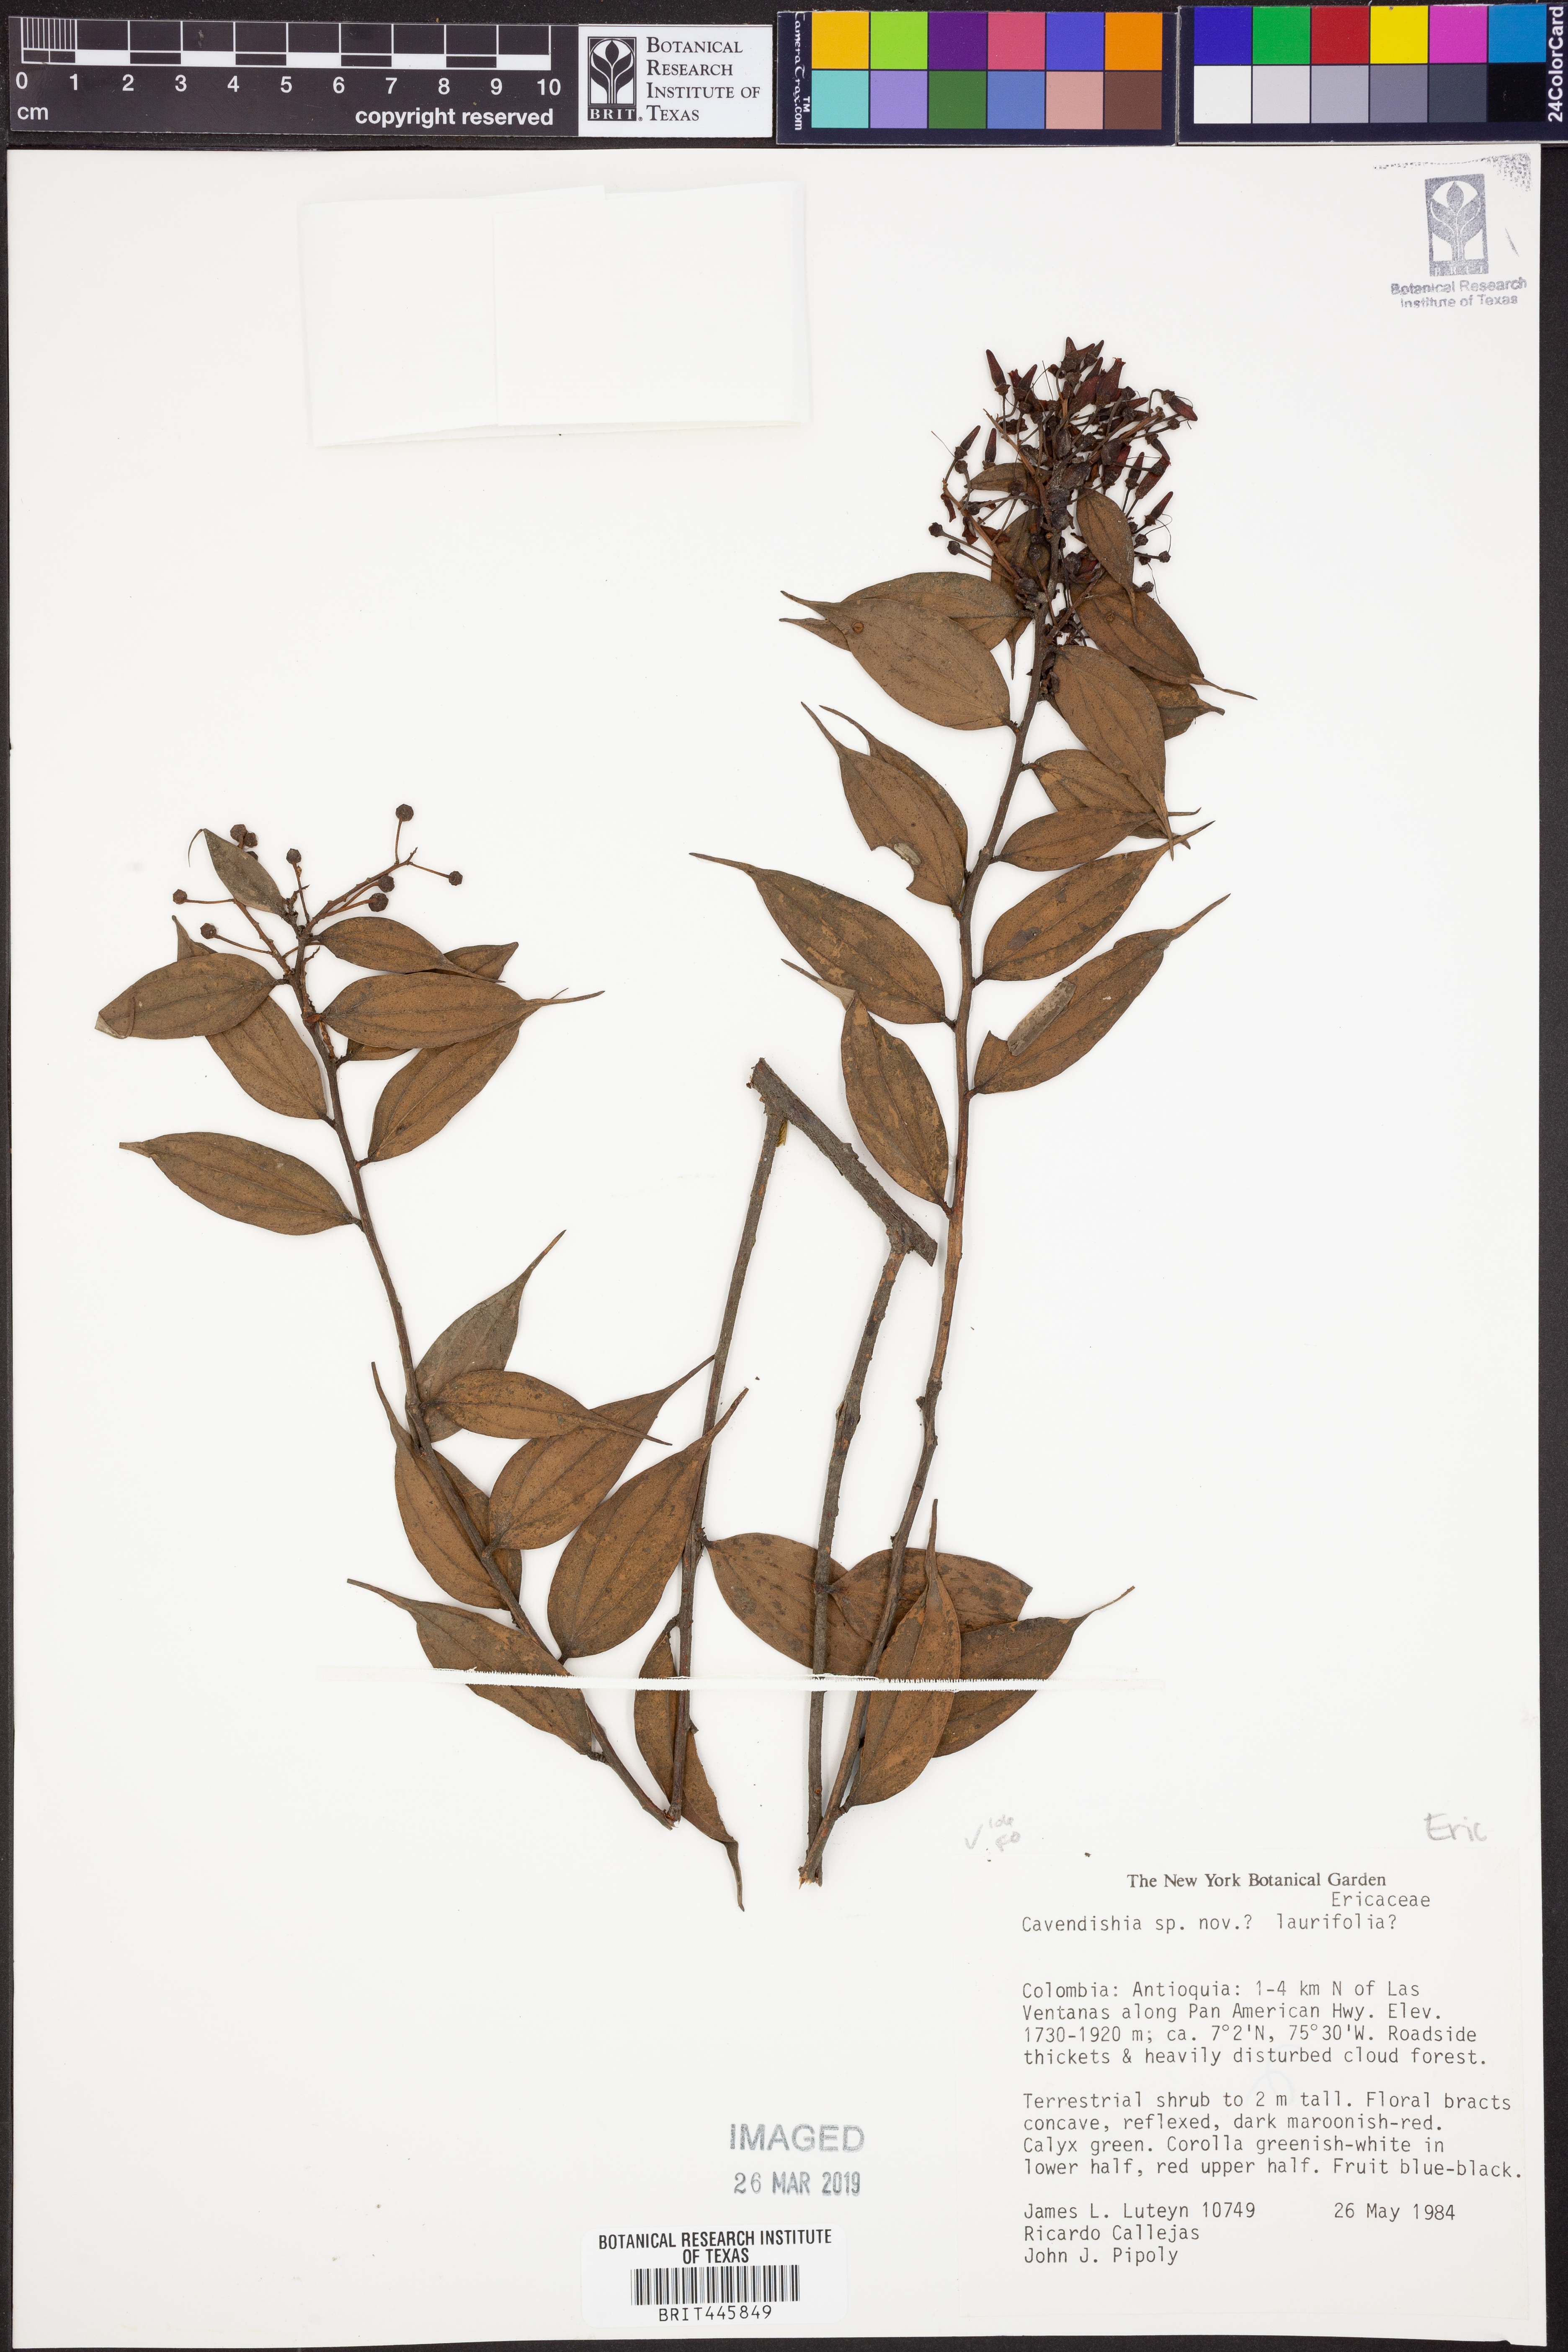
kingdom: Plantae
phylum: Tracheophyta
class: Magnoliopsida
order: Ericales
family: Ericaceae
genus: Cavendishia
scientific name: Cavendishia laurifolia
